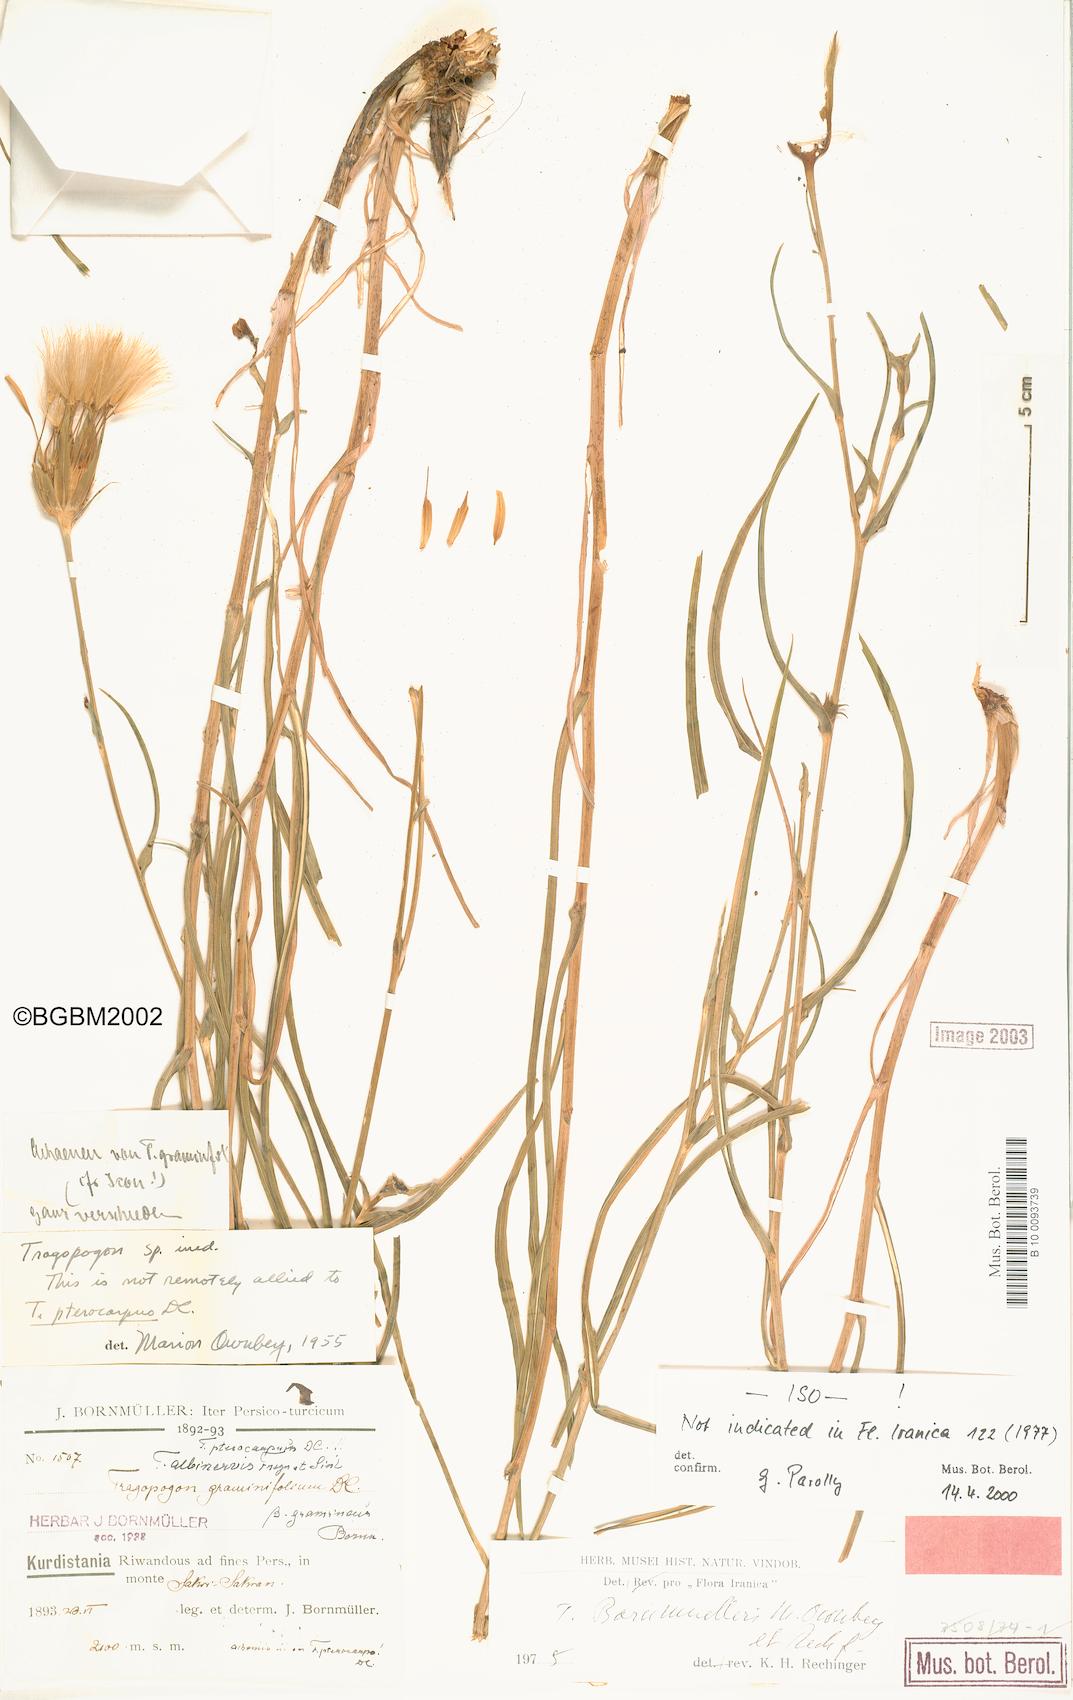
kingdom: Plantae
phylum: Tracheophyta
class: Magnoliopsida
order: Asterales
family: Asteraceae
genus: Tragopogon
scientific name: Tragopogon bornmuelleri
